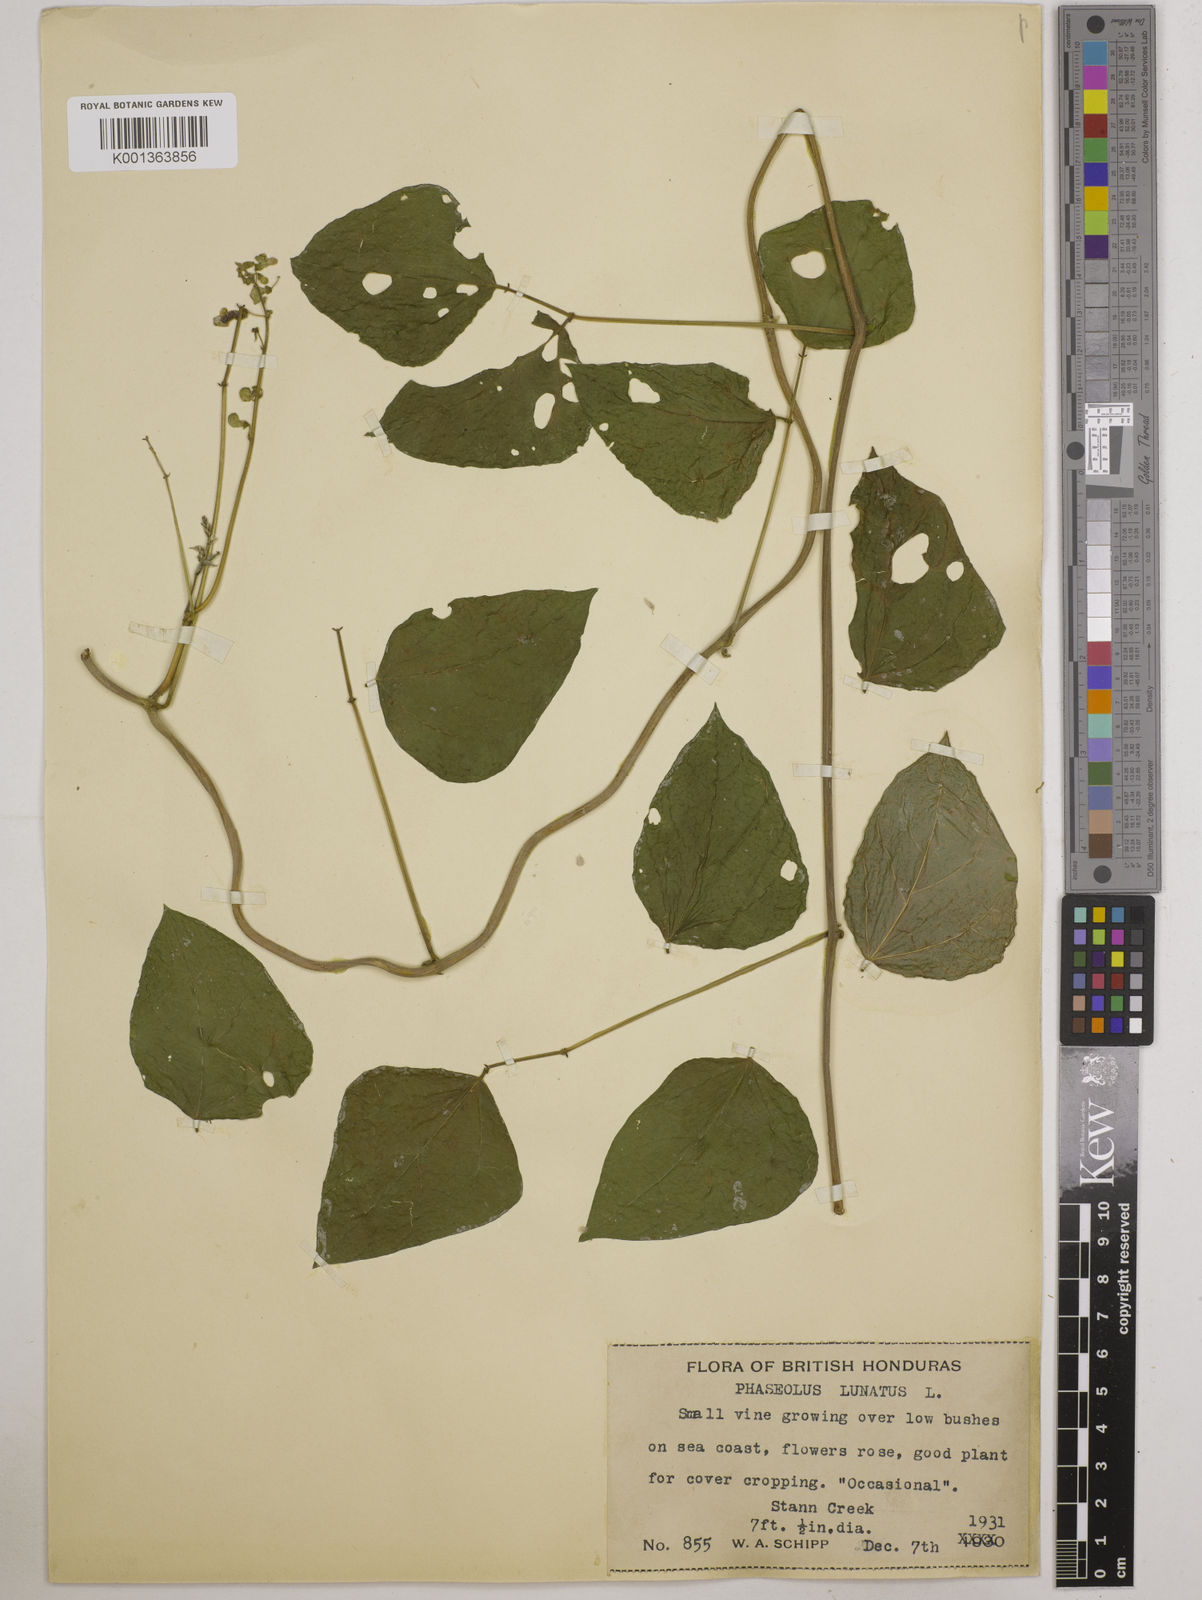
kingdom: Plantae
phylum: Tracheophyta
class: Magnoliopsida
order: Fabales
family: Fabaceae
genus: Phaseolus
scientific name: Phaseolus lunatus
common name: Sieva bean
